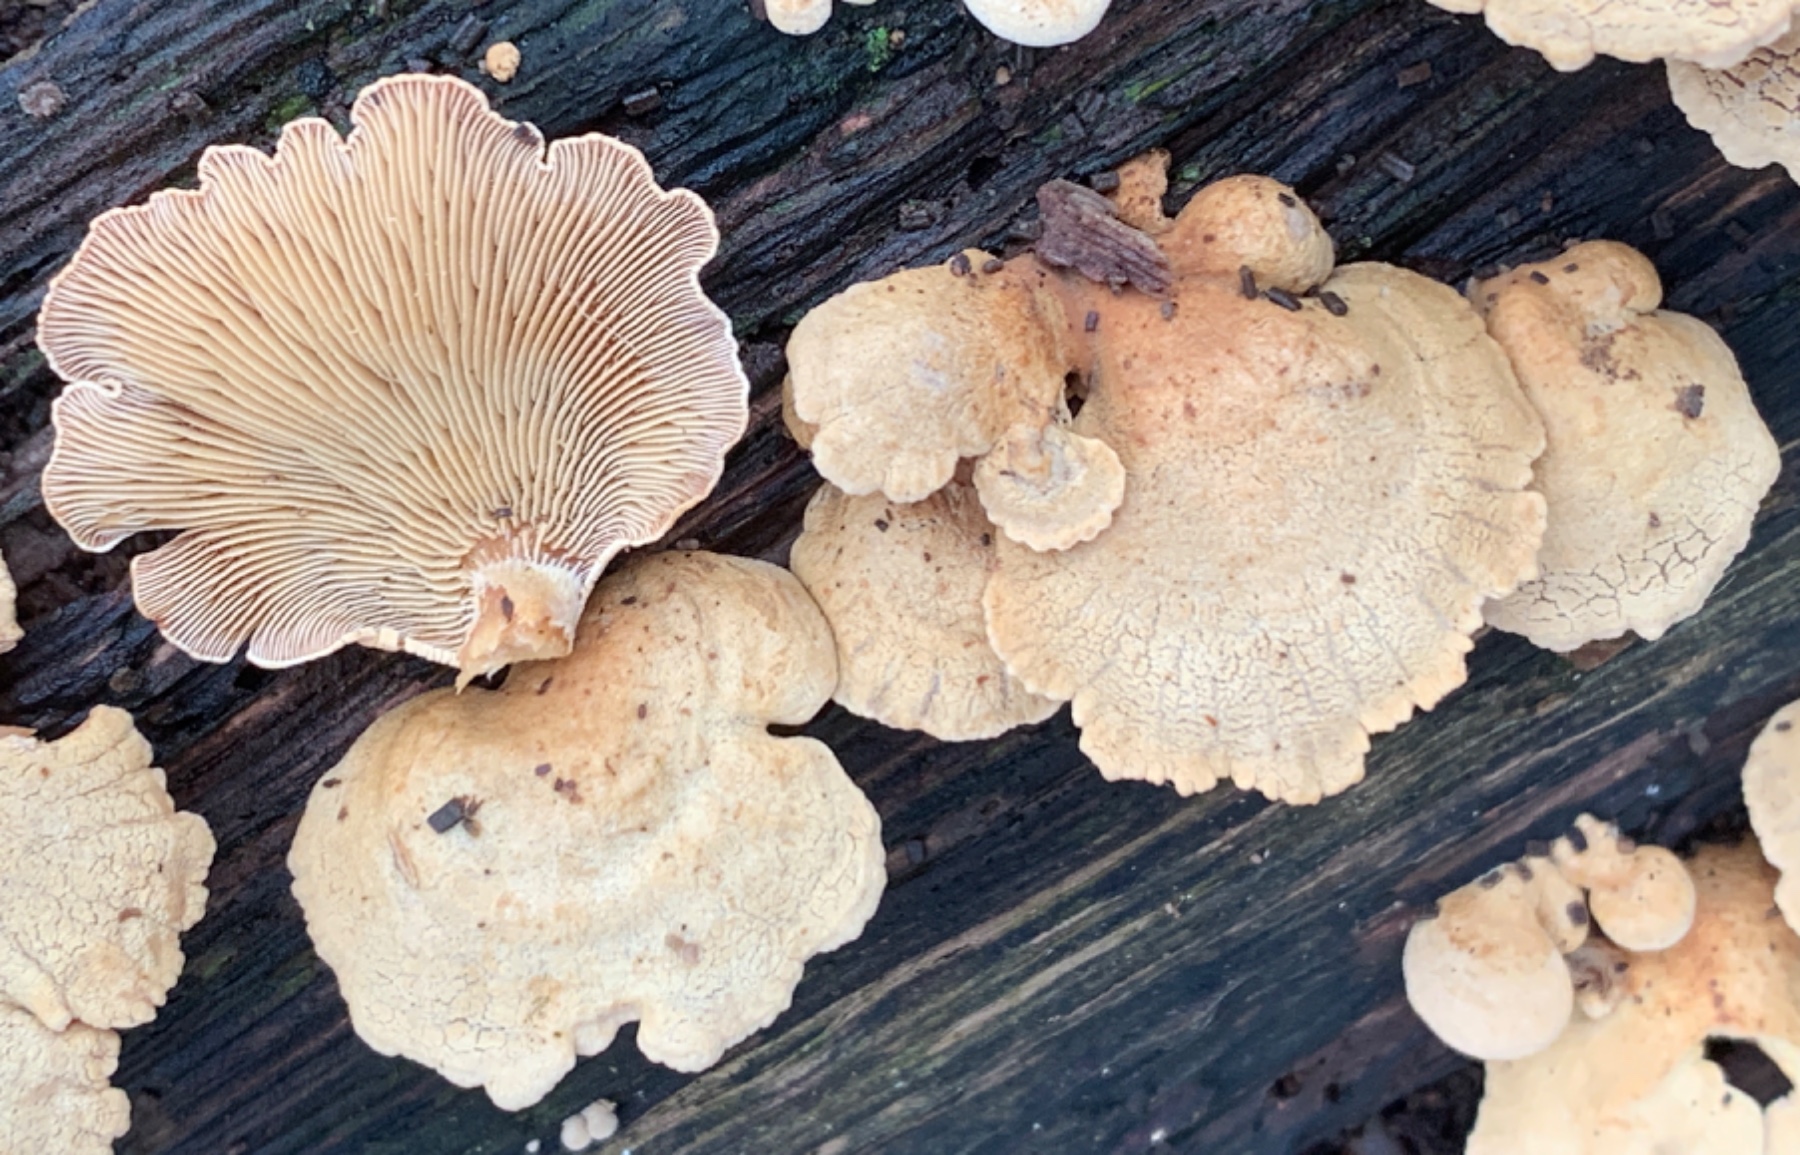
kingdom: Fungi
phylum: Basidiomycota
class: Agaricomycetes
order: Agaricales
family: Mycenaceae
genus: Panellus
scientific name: Panellus stipticus
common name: kliddet epaulethat
